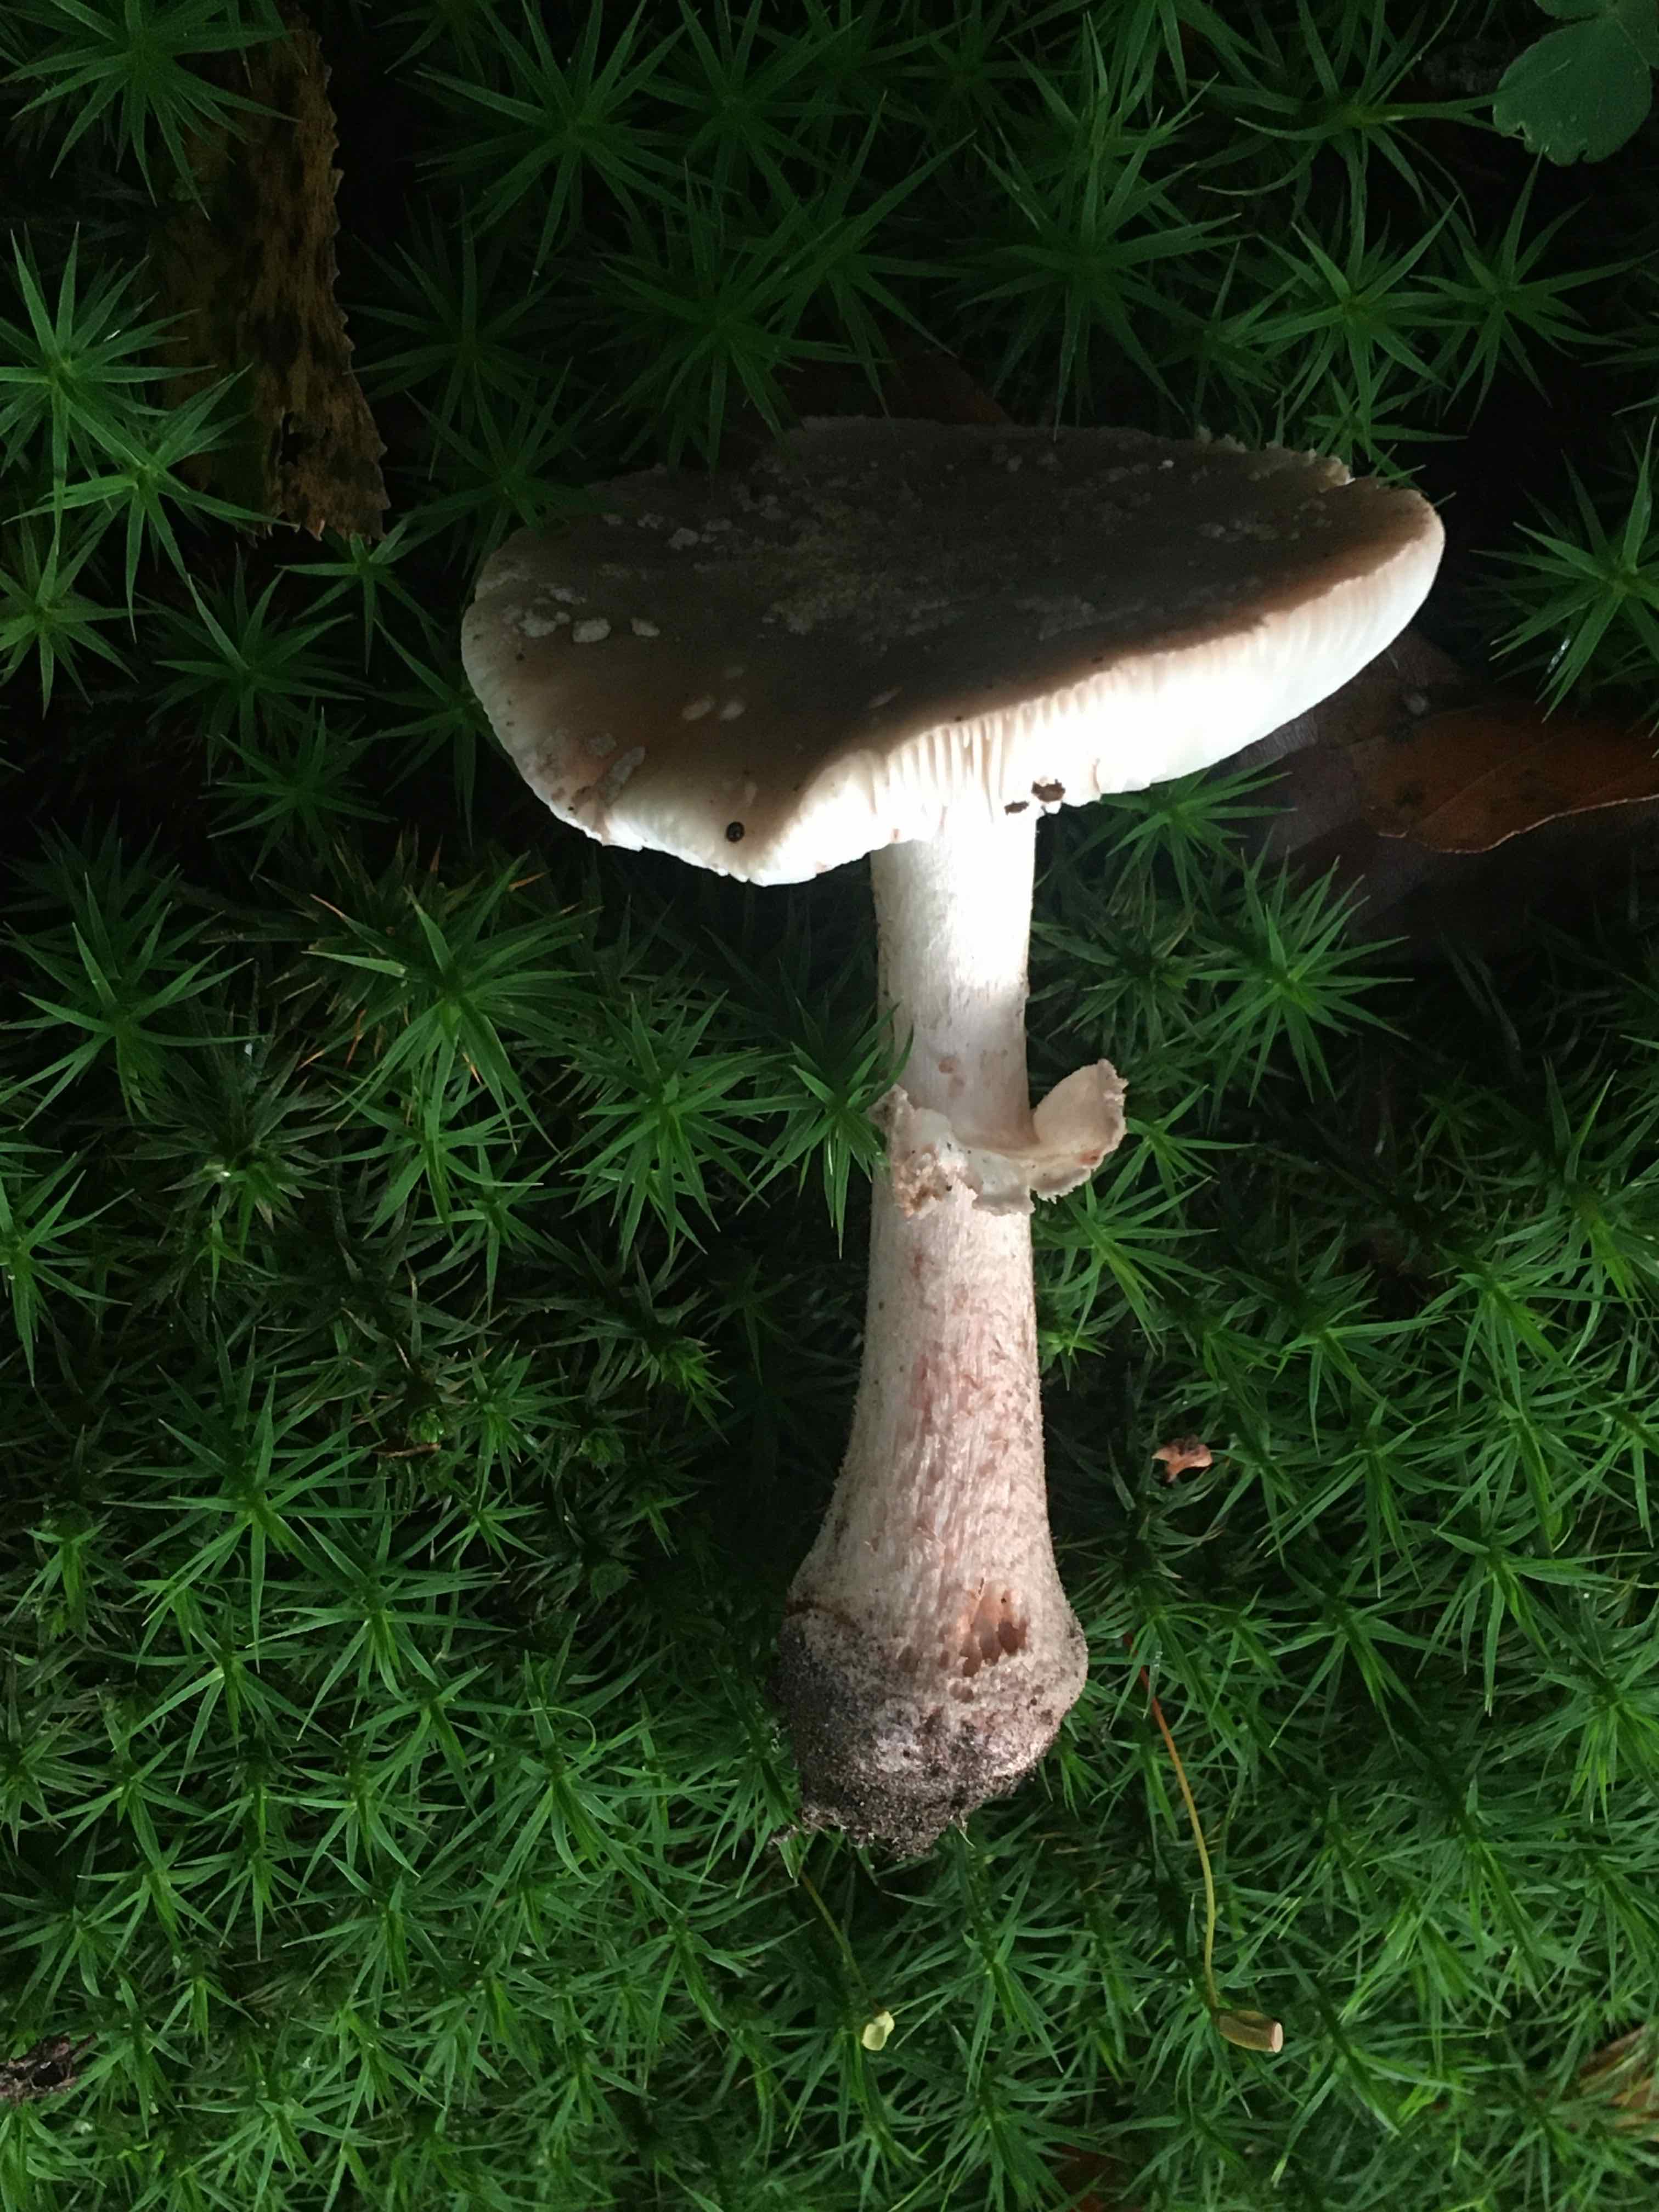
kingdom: Fungi
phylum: Basidiomycota
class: Agaricomycetes
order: Agaricales
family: Amanitaceae
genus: Amanita
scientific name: Amanita rubescens
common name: rødmende fluesvamp
